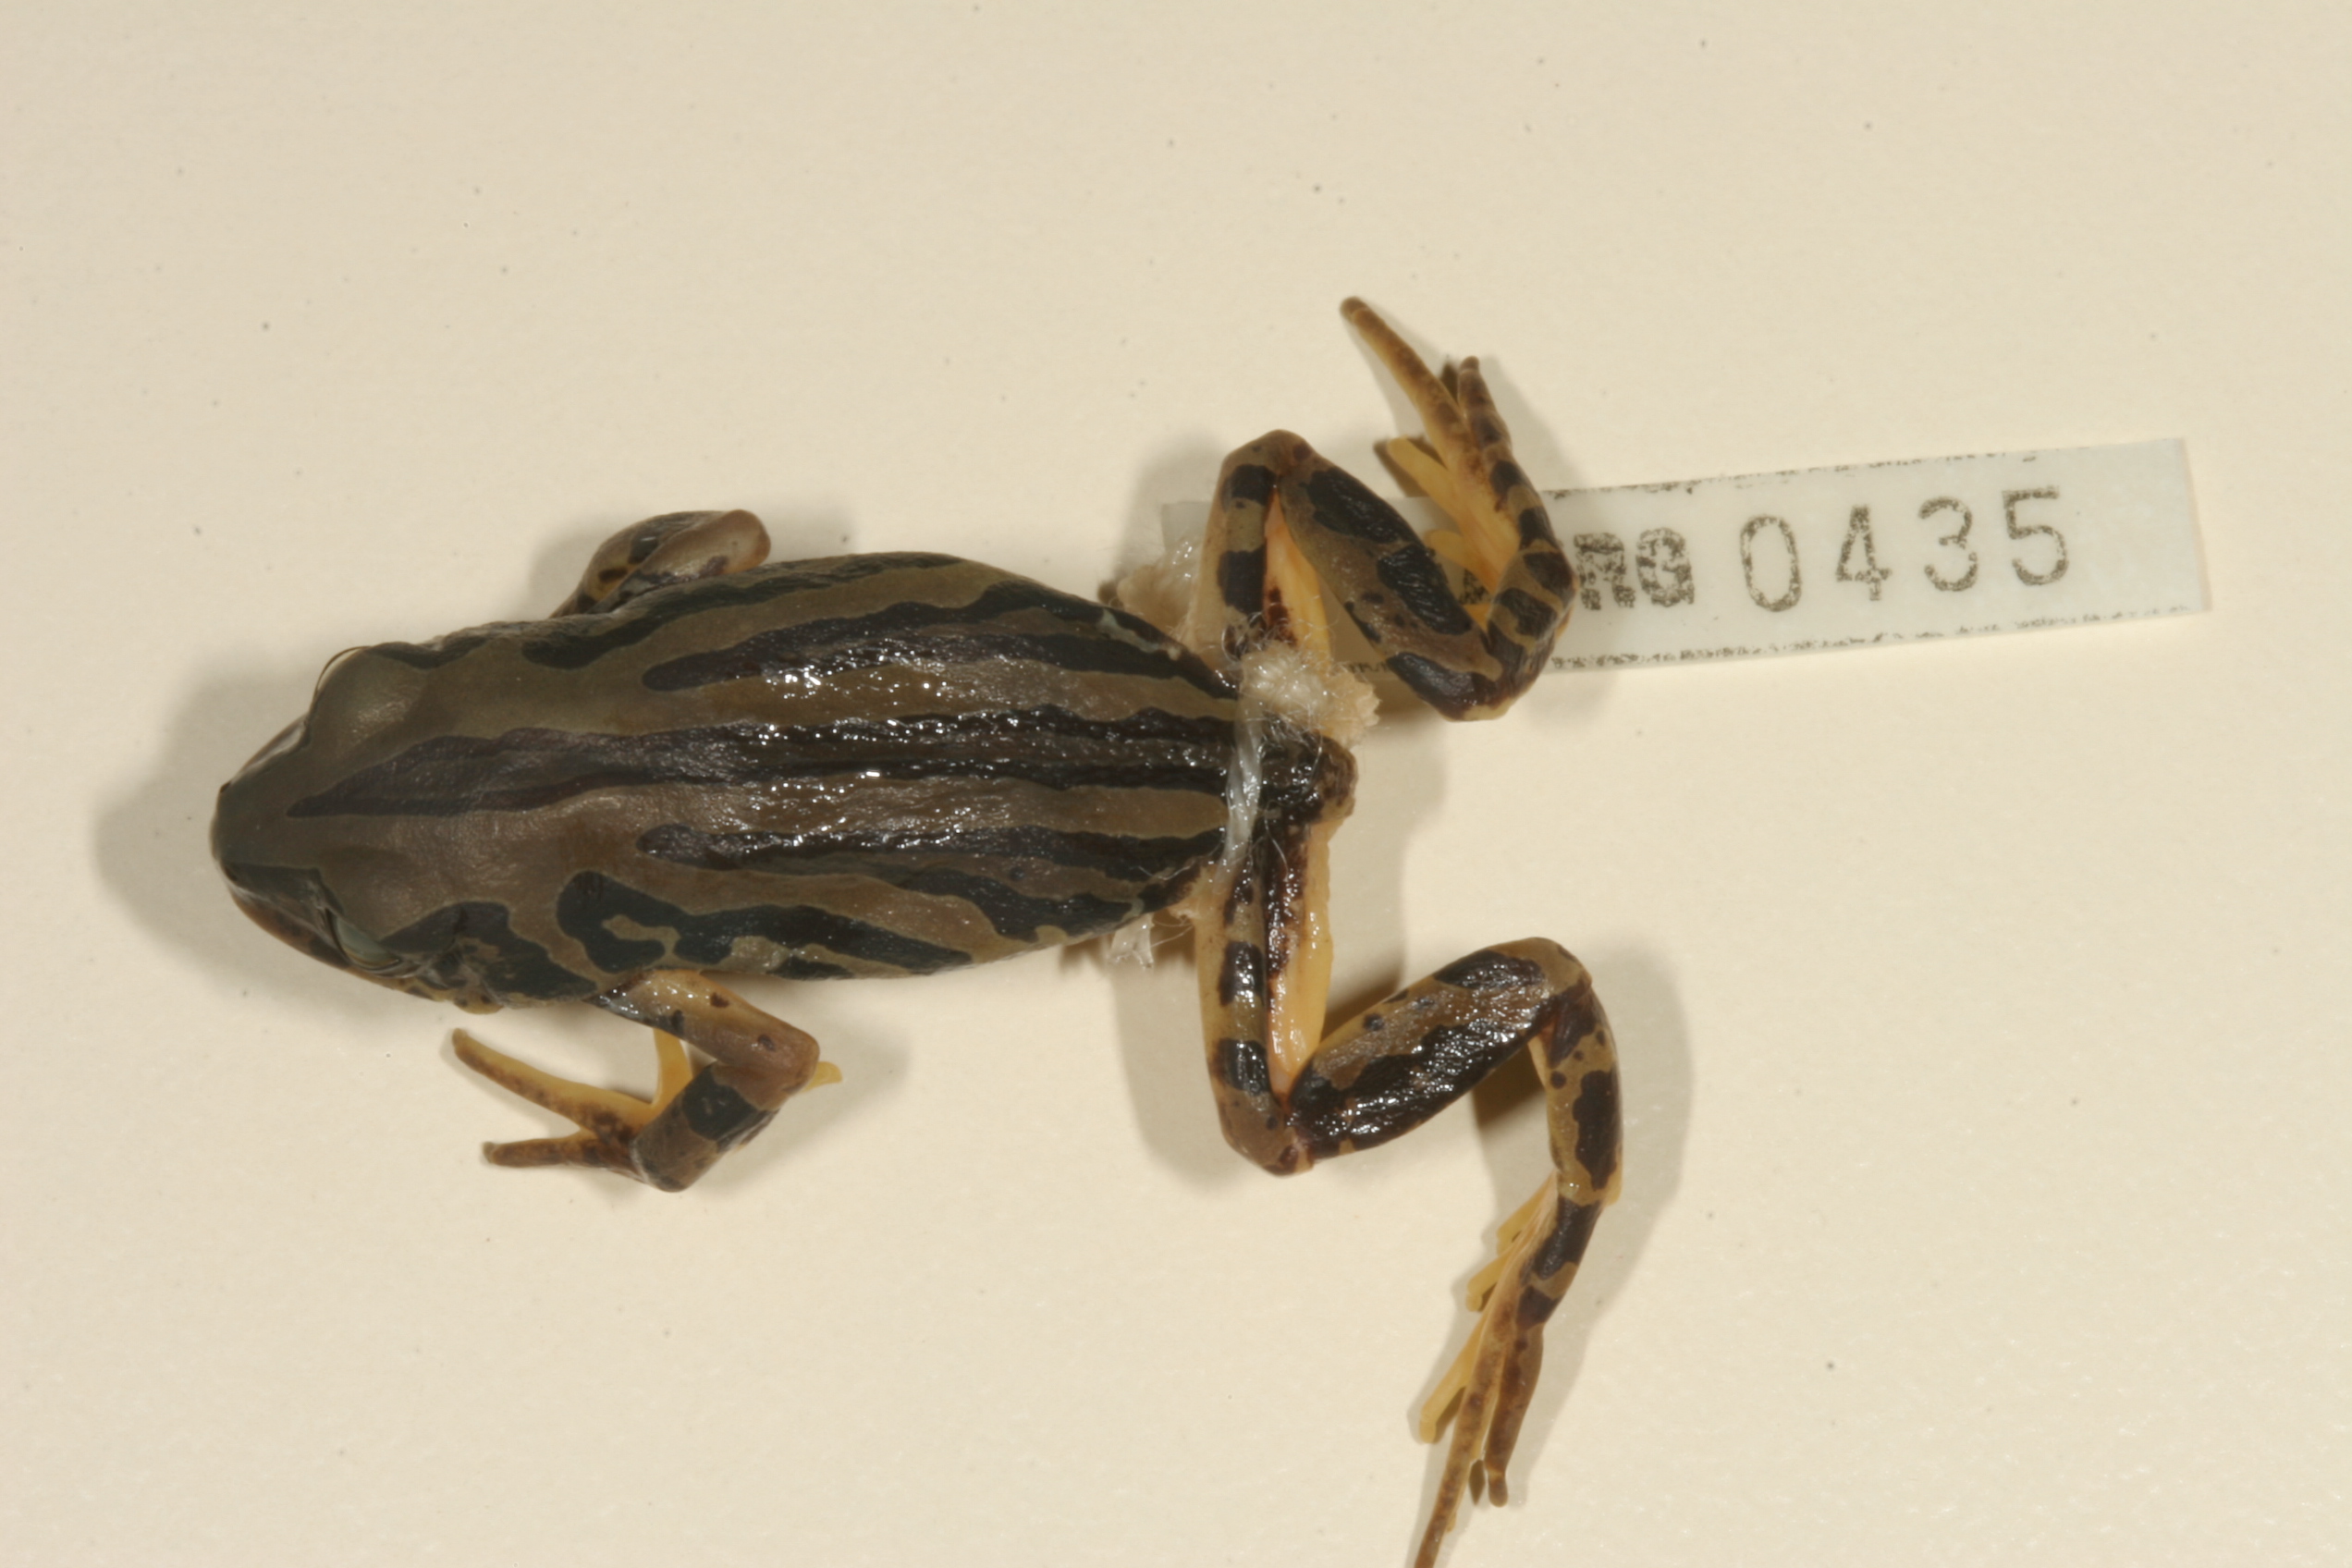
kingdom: Animalia
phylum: Chordata
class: Amphibia
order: Anura
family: Hyperoliidae
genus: Semnodactylus
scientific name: Semnodactylus wealii
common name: Weal's frog
